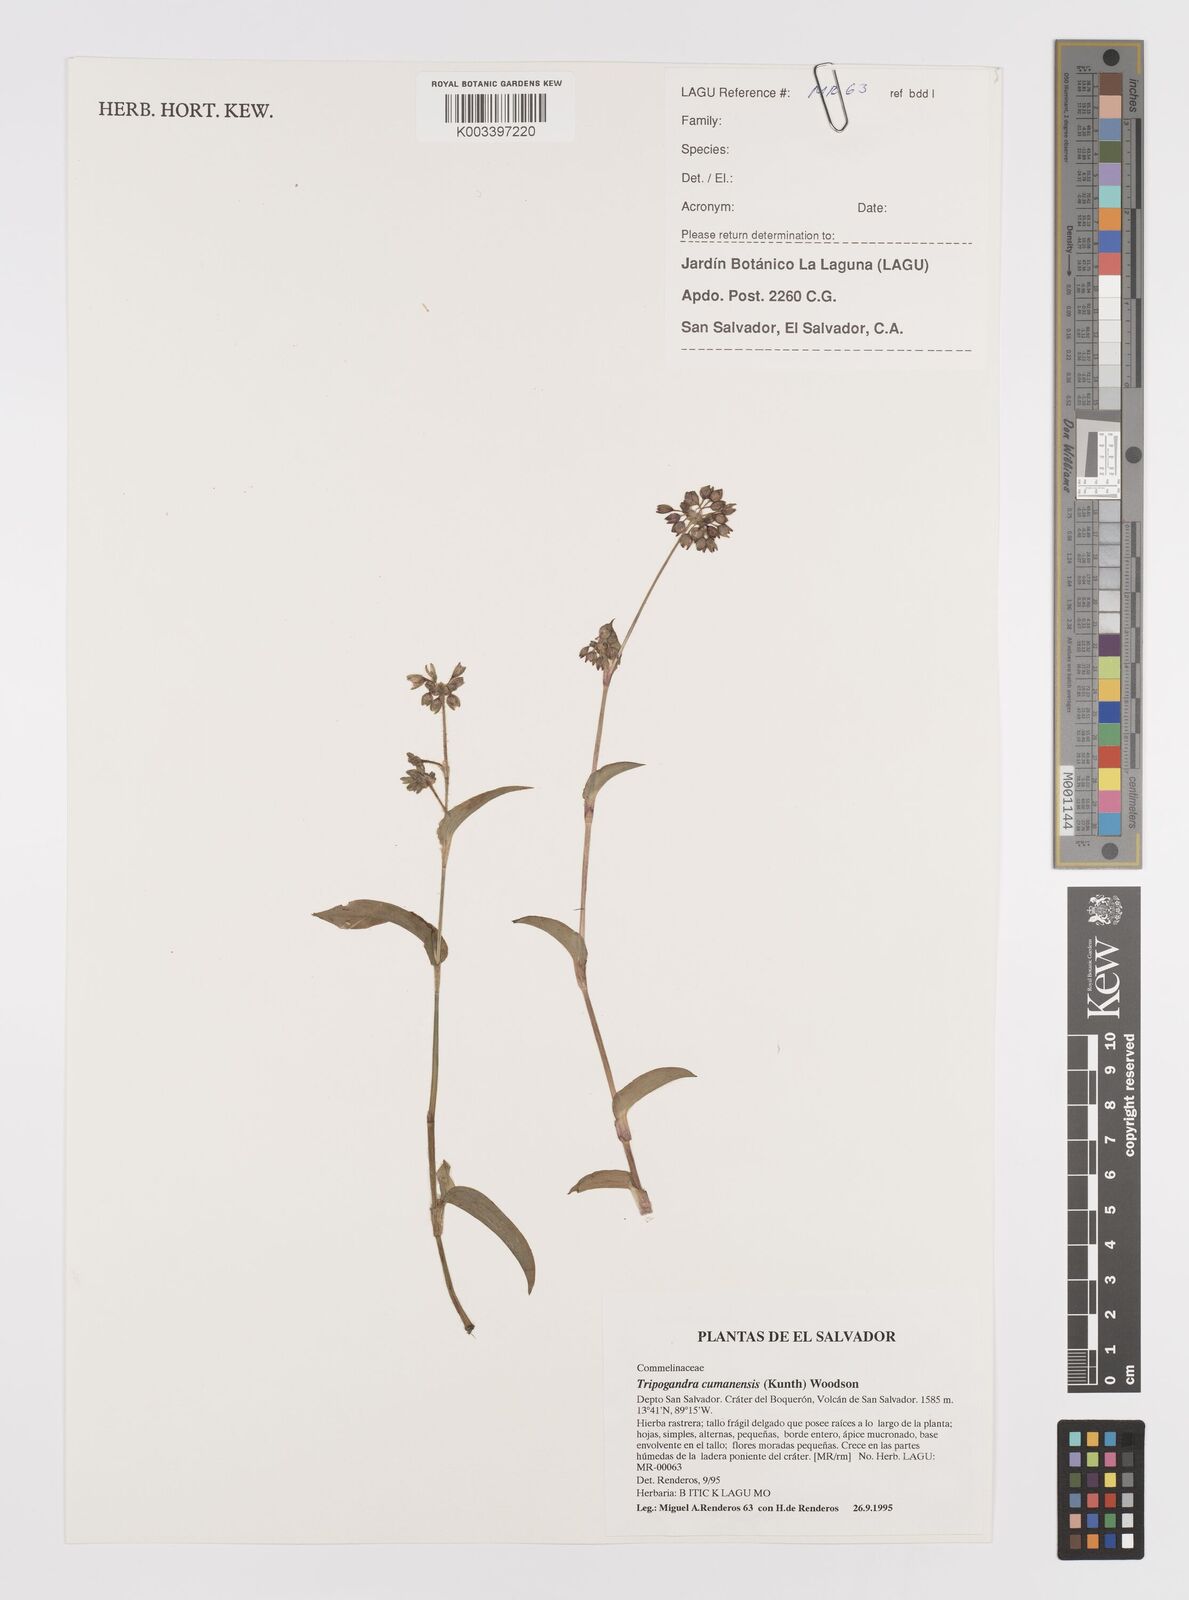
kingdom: Plantae
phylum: Tracheophyta
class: Liliopsida
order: Commelinales
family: Commelinaceae
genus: Callisia
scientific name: Callisia procumbens
